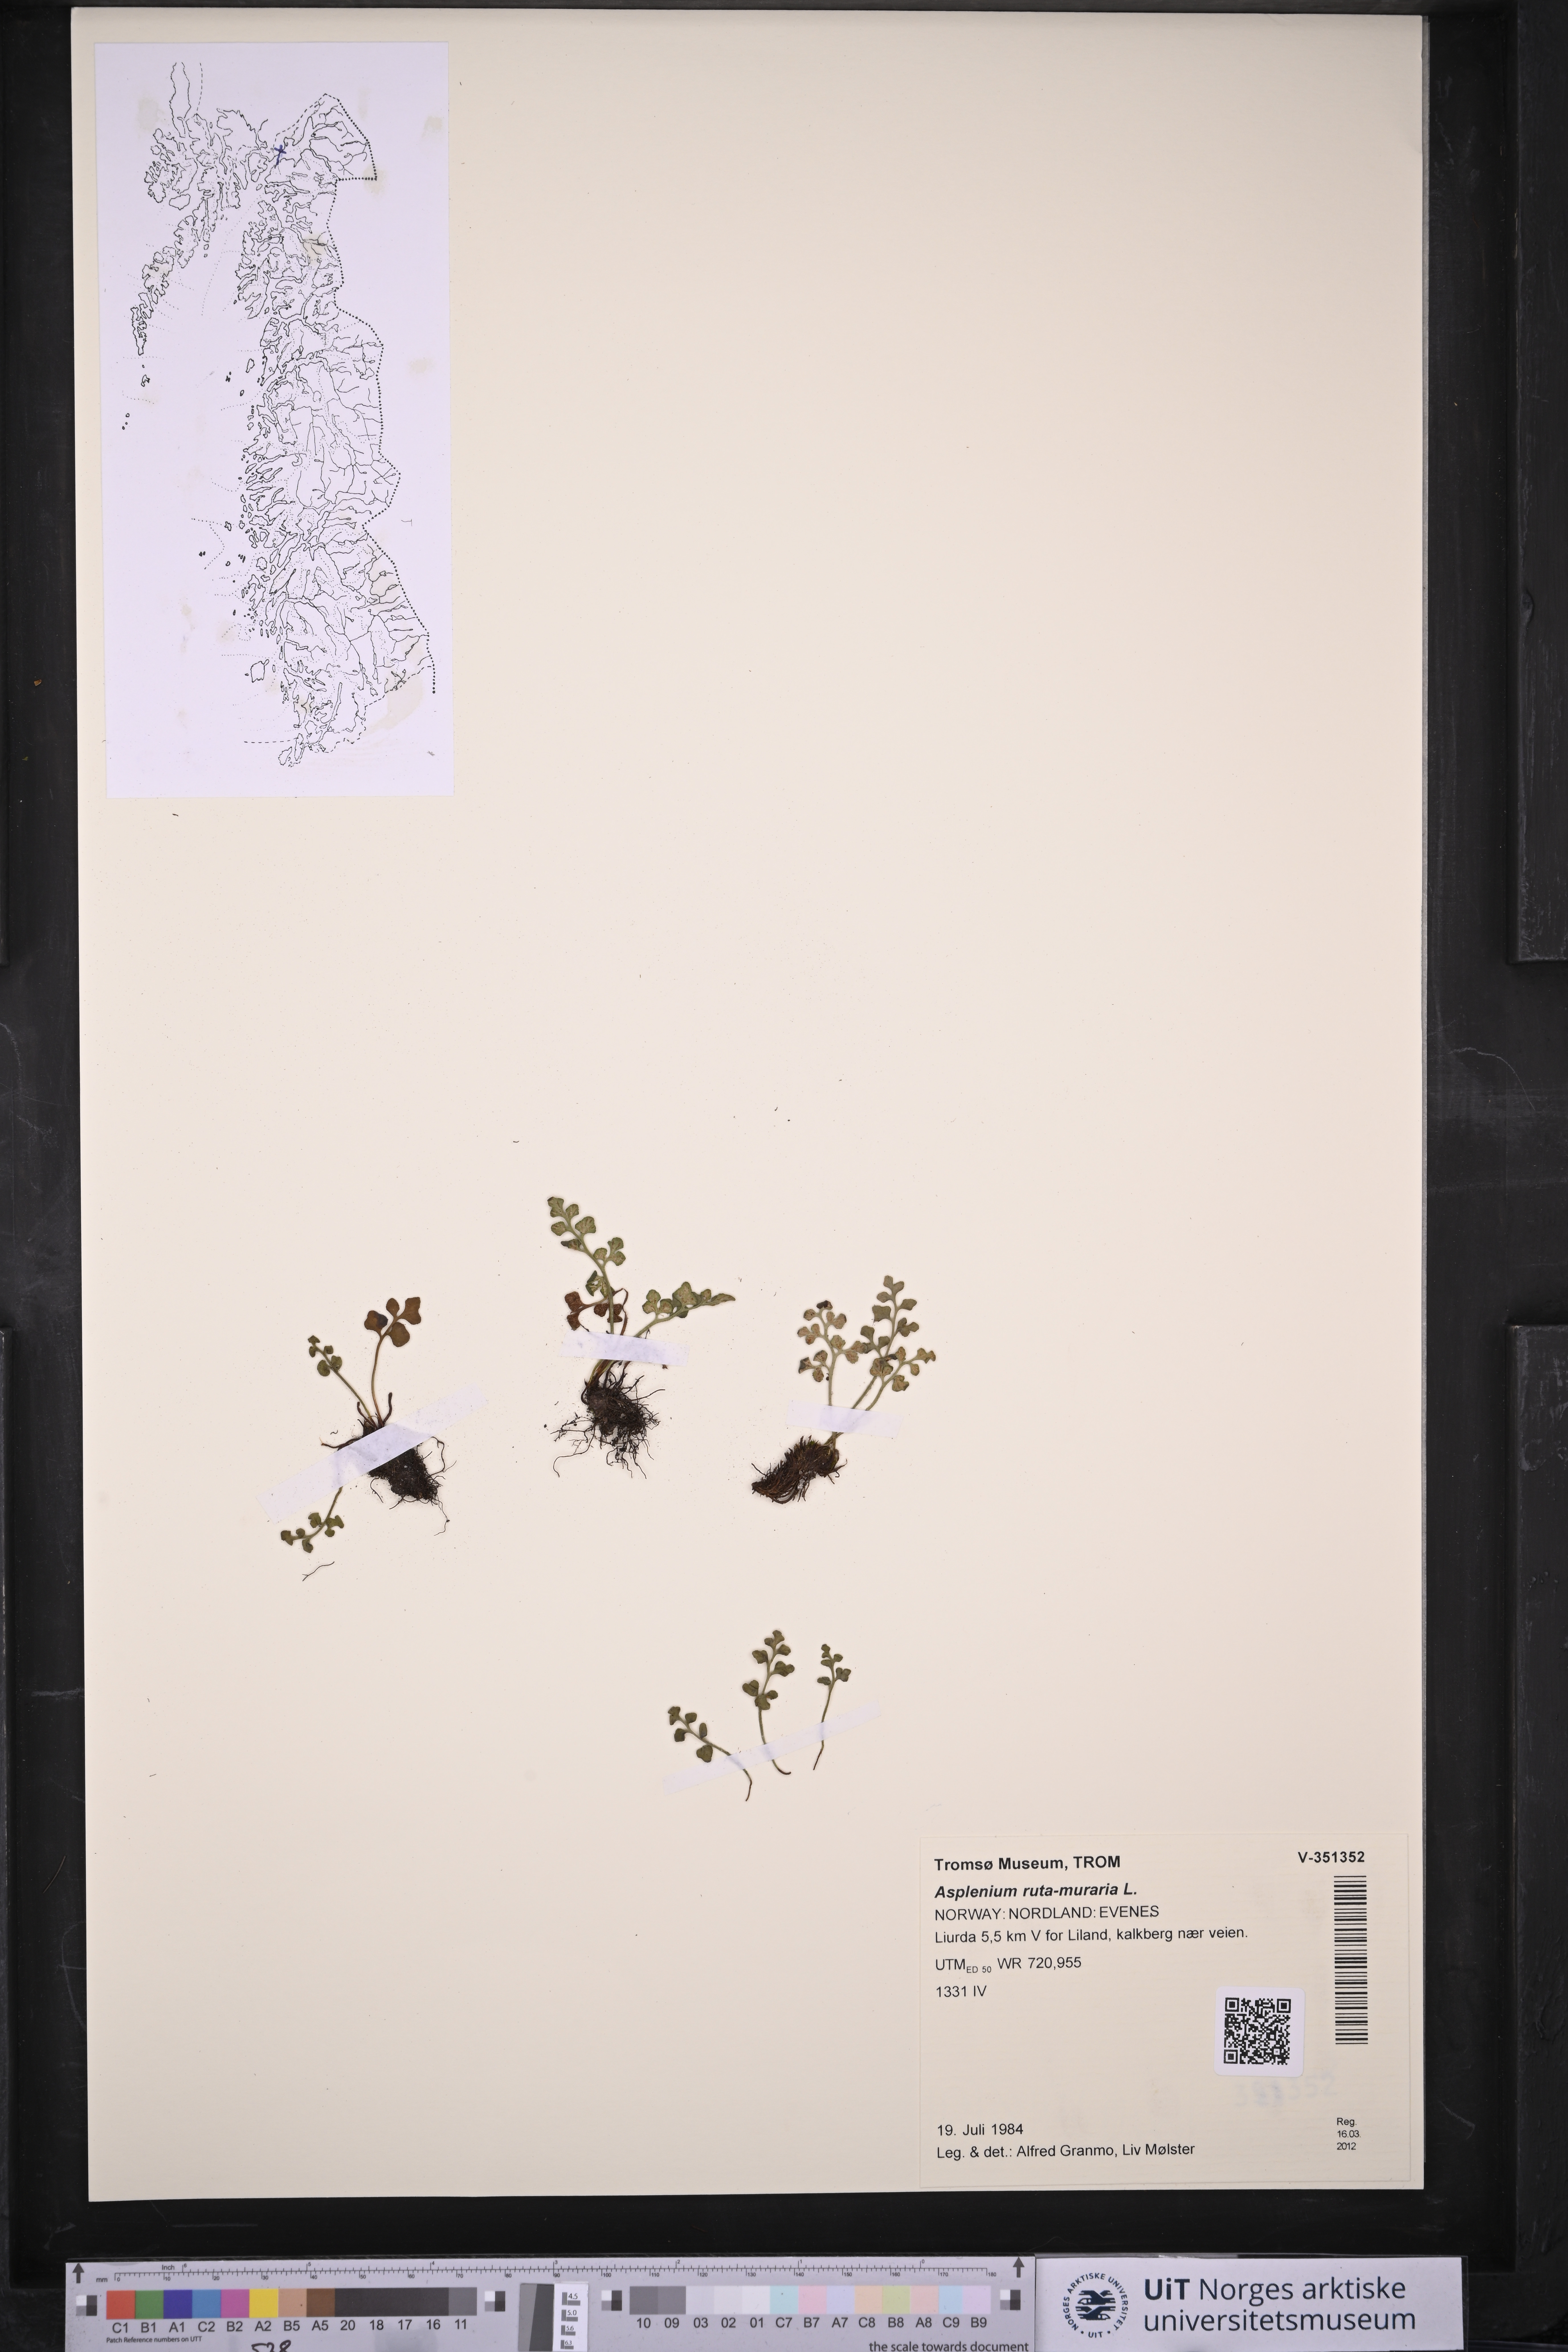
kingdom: Plantae
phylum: Tracheophyta
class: Polypodiopsida
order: Polypodiales
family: Aspleniaceae
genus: Asplenium
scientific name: Asplenium ruta-muraria
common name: Wall-rue
